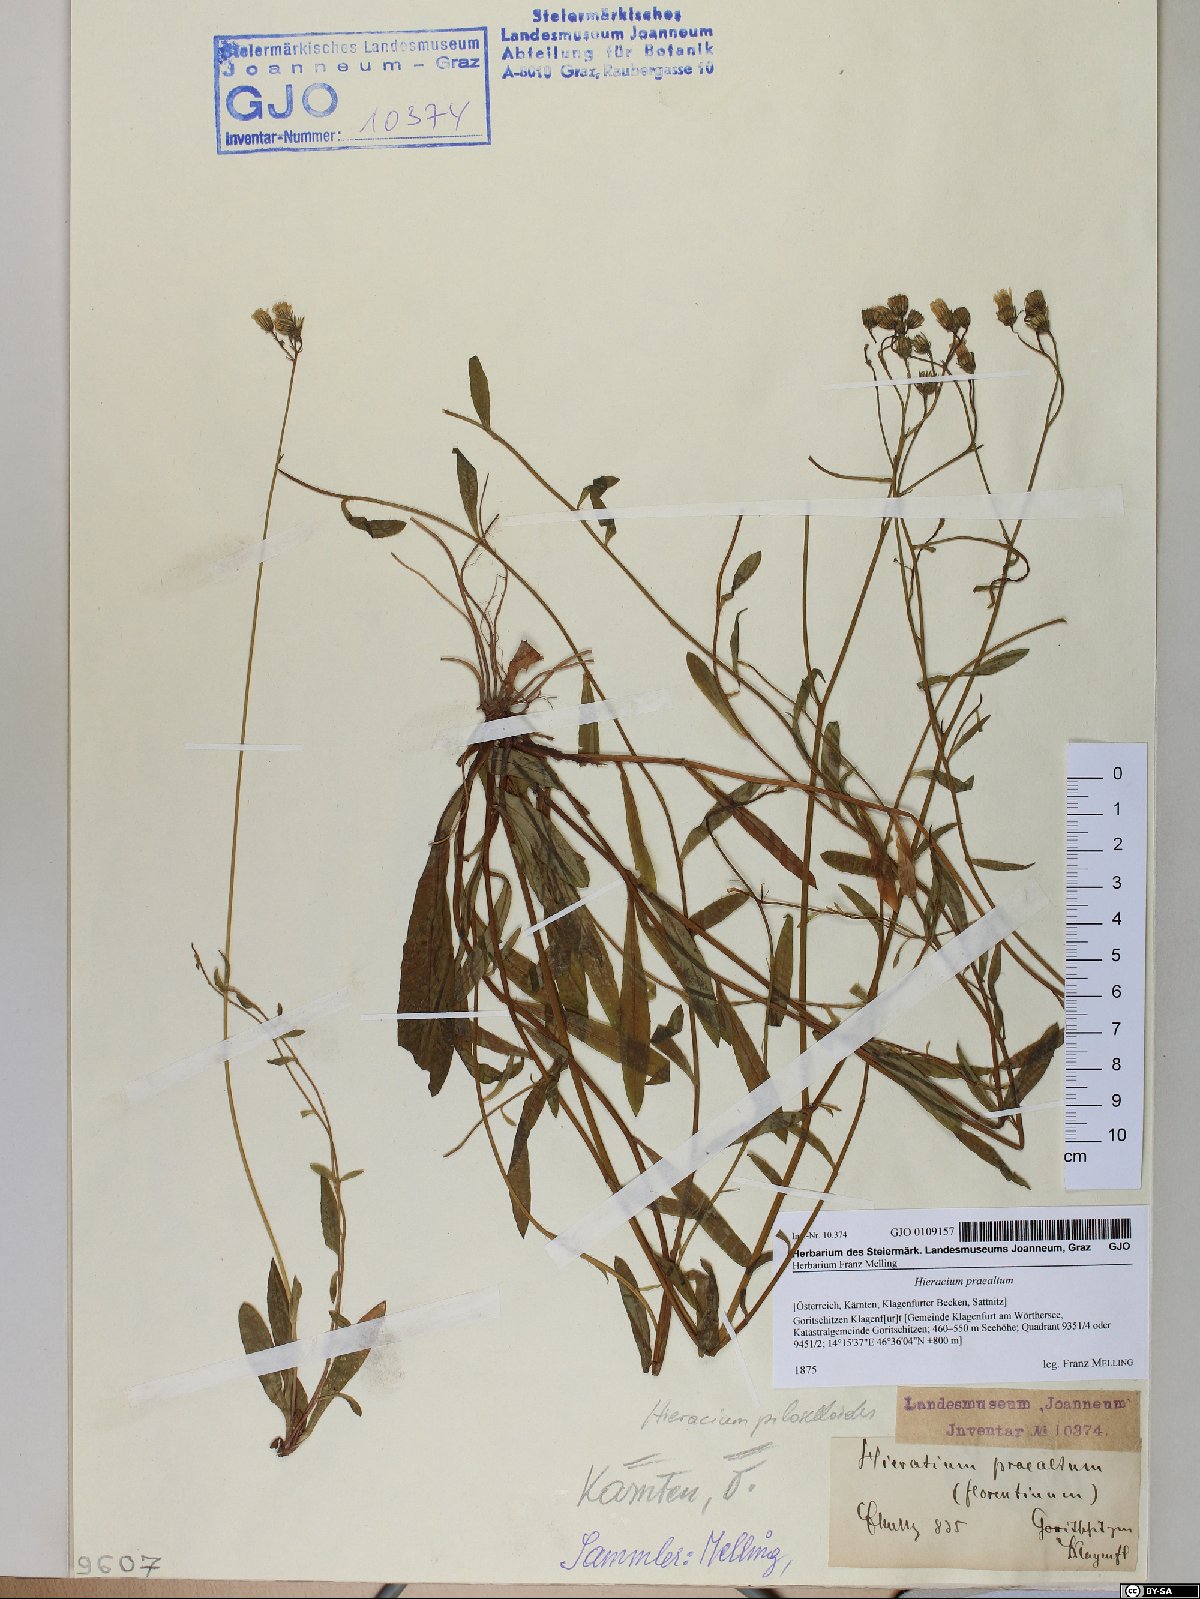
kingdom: Plantae
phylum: Tracheophyta
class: Magnoliopsida
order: Asterales
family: Asteraceae
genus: Pilosella
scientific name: Pilosella piloselloides
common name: Glaucous king-devil
